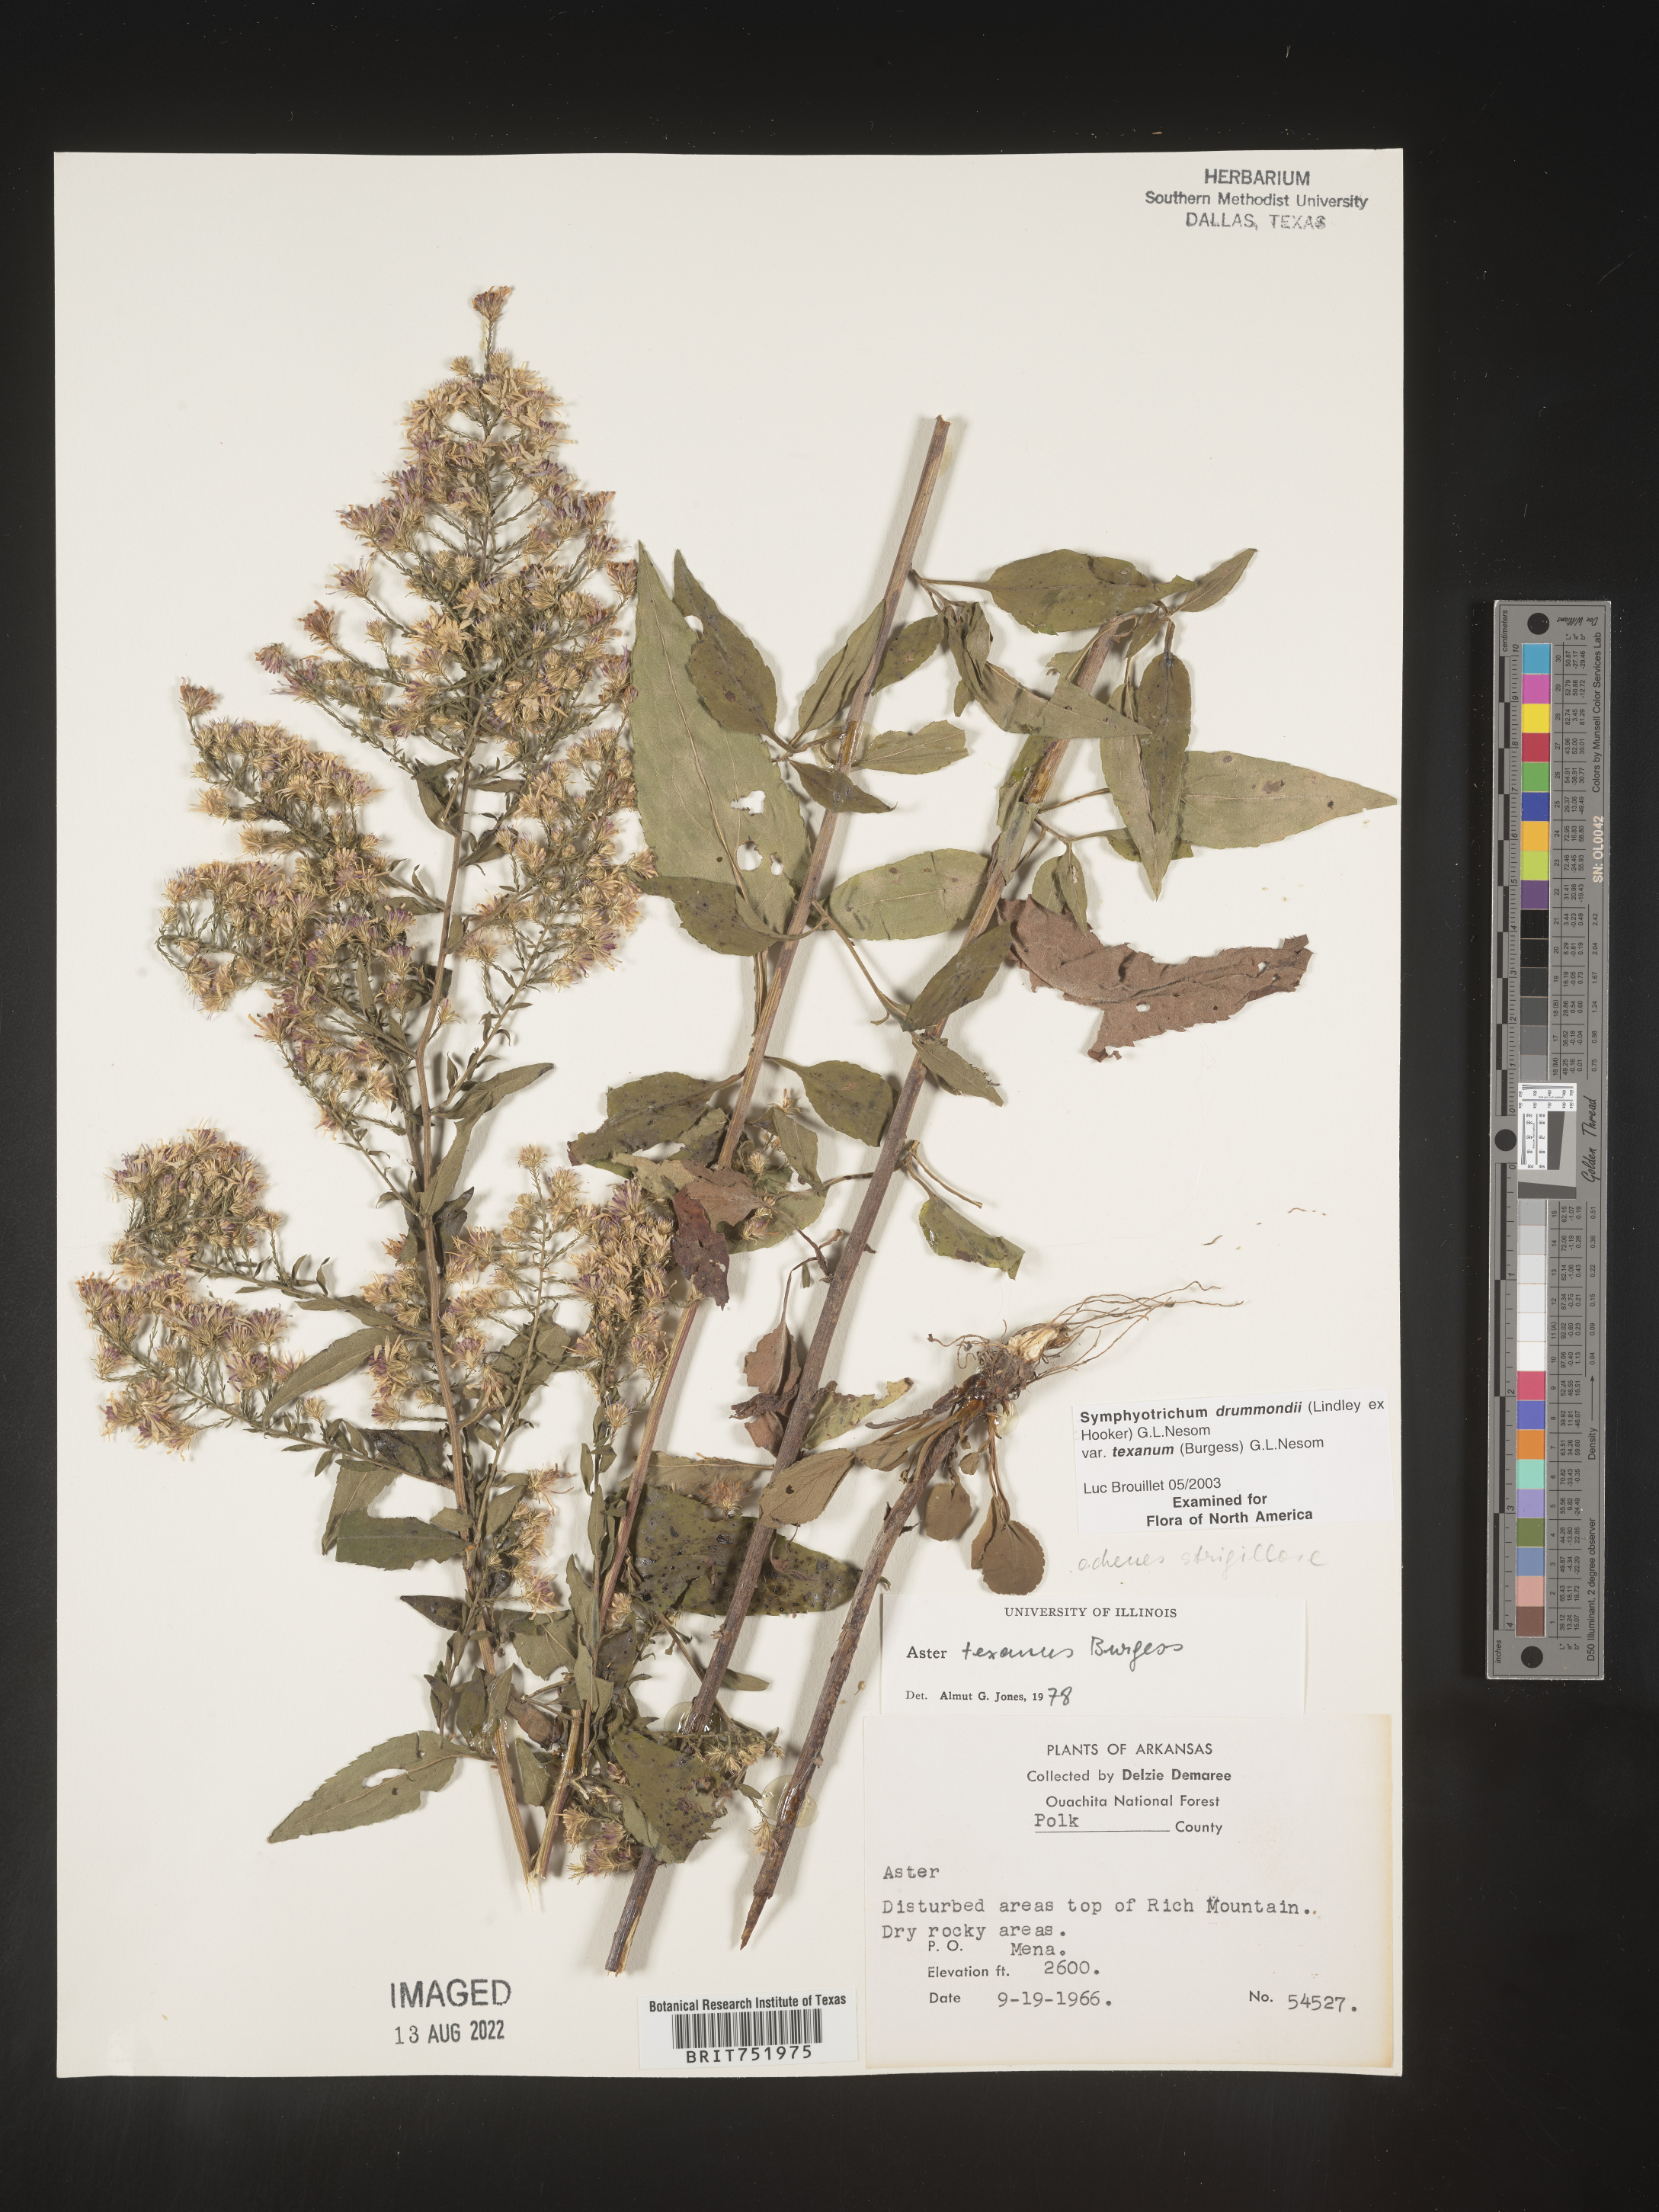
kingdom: Plantae
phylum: Tracheophyta
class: Magnoliopsida
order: Asterales
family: Asteraceae
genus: Symphyotrichum
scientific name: Symphyotrichum drummondii
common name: Drummond's aster
